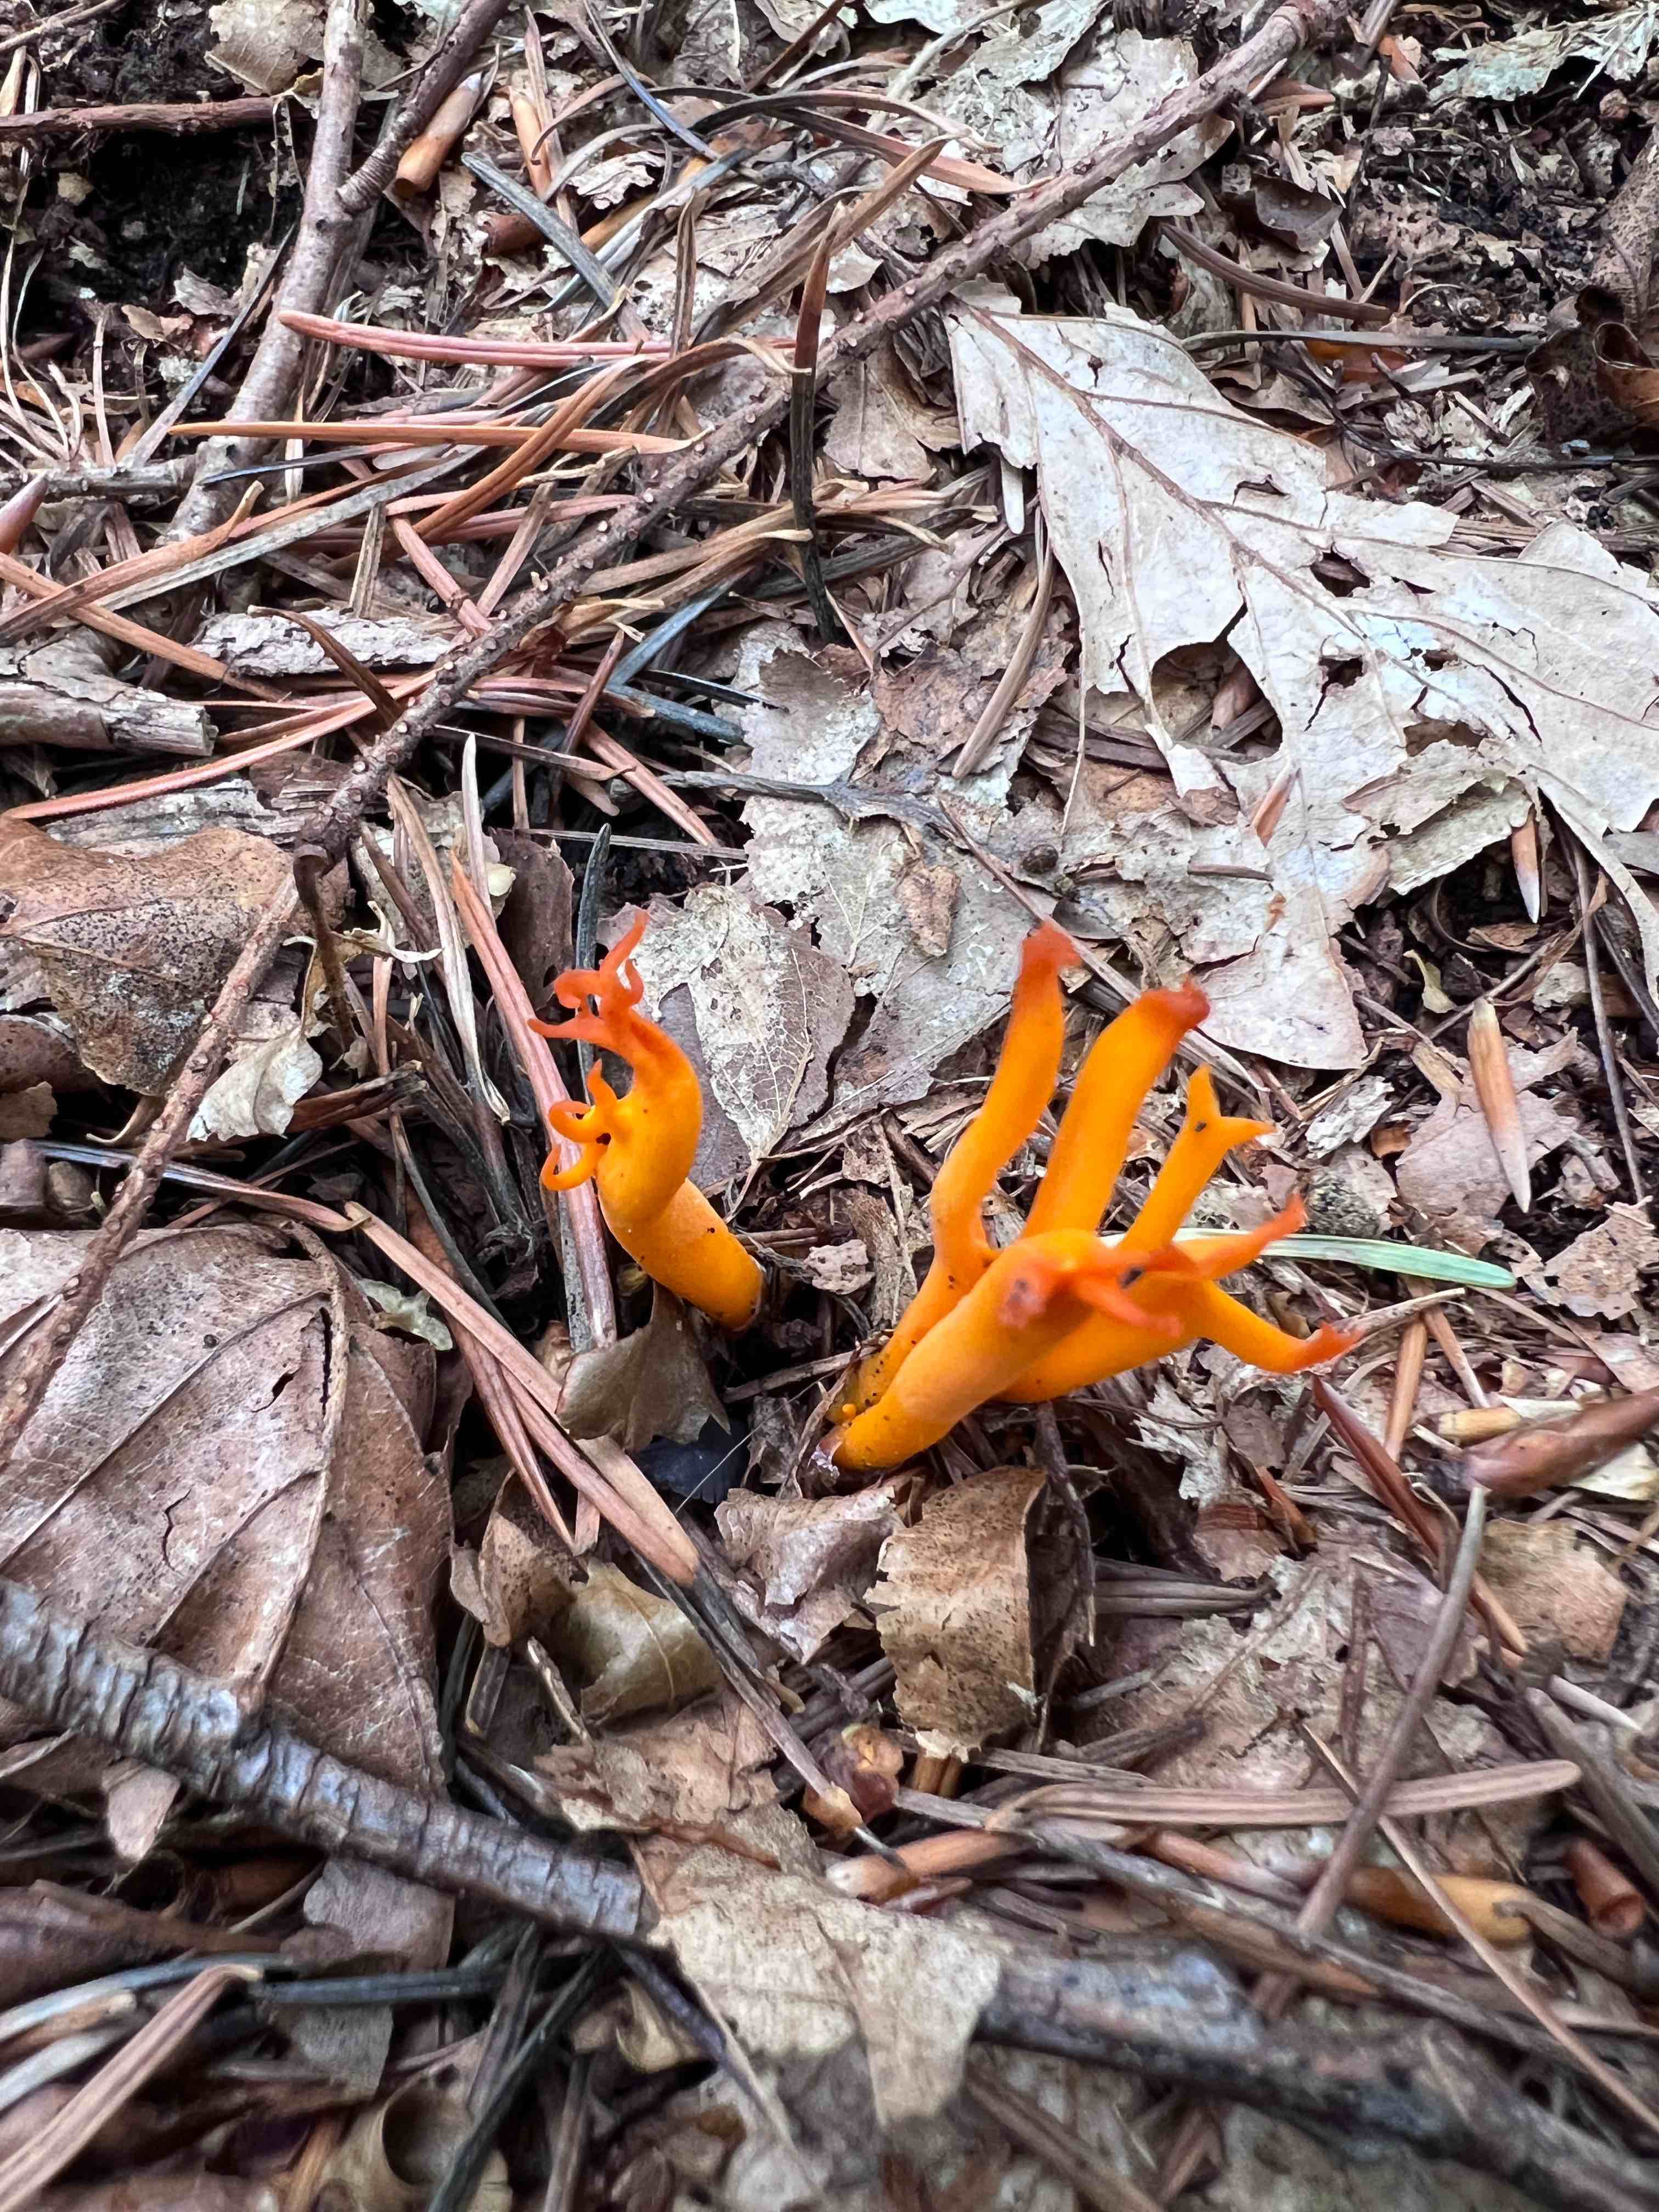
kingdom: Fungi
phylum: Basidiomycota
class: Dacrymycetes
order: Dacrymycetales
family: Dacrymycetaceae
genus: Calocera
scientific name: Calocera viscosa
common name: almindelig guldgaffel
